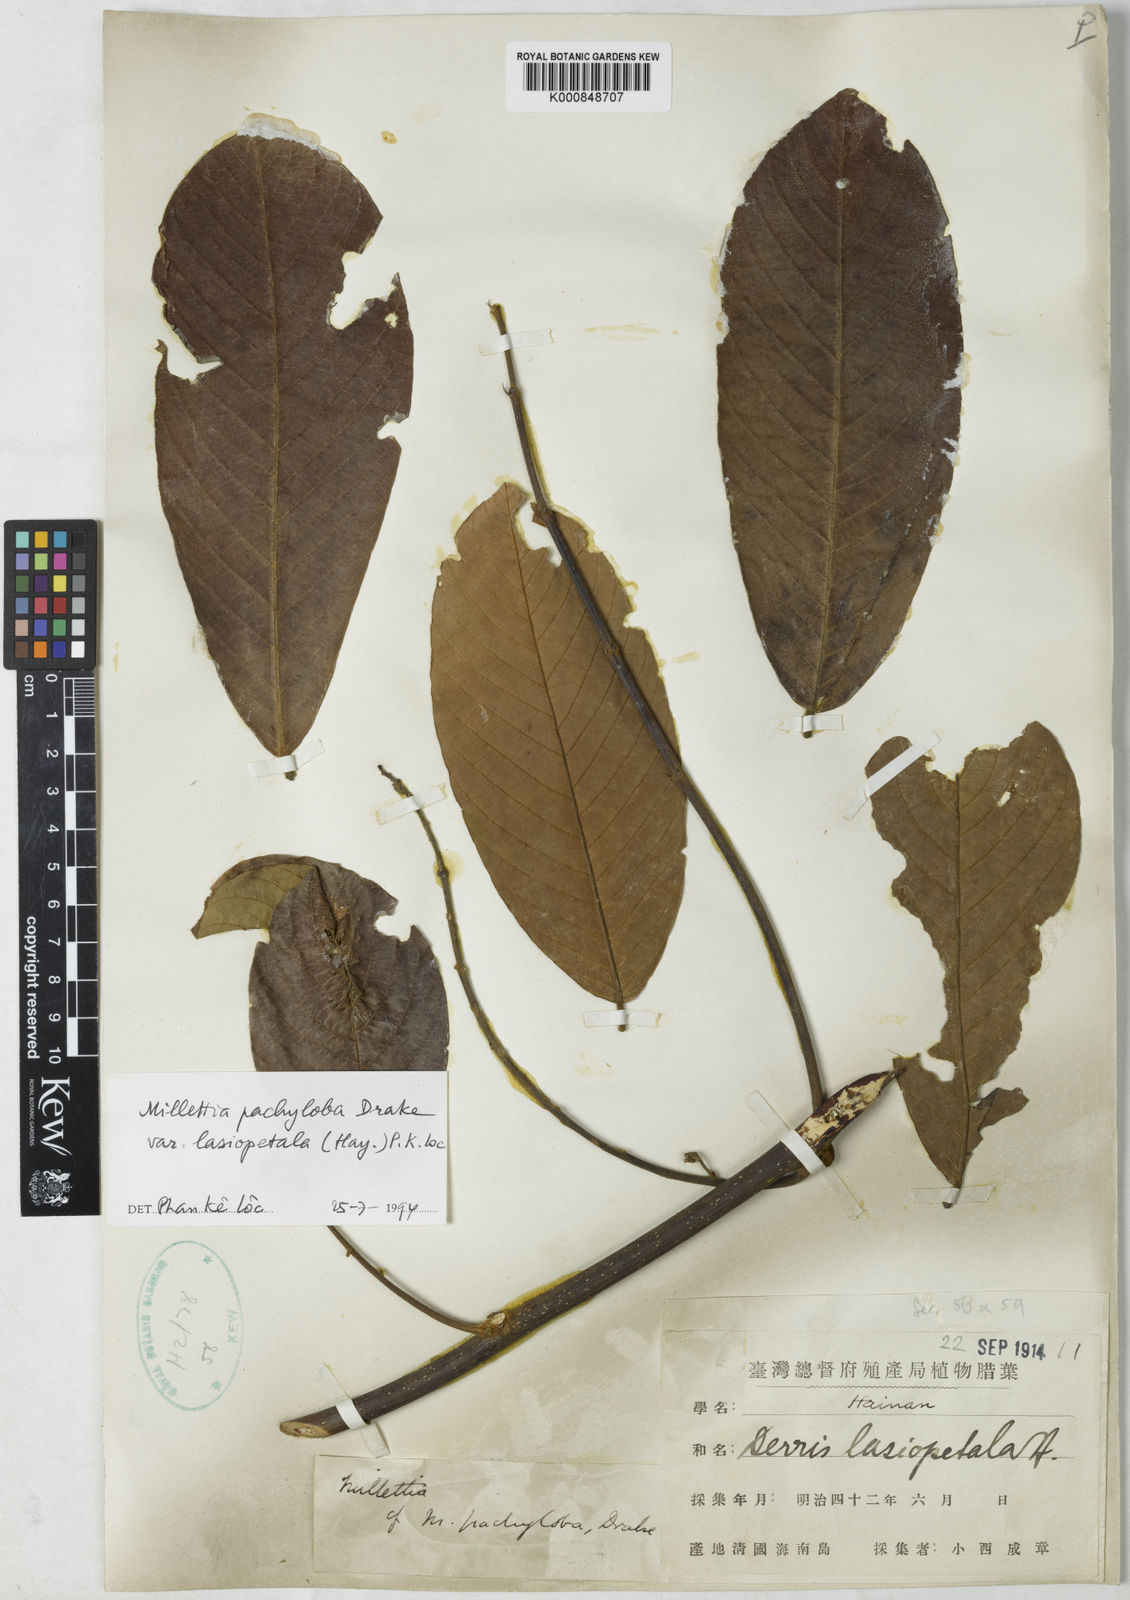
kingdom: Plantae
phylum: Tracheophyta
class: Magnoliopsida
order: Fabales
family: Fabaceae
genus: Millettia
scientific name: Millettia pachyloba
